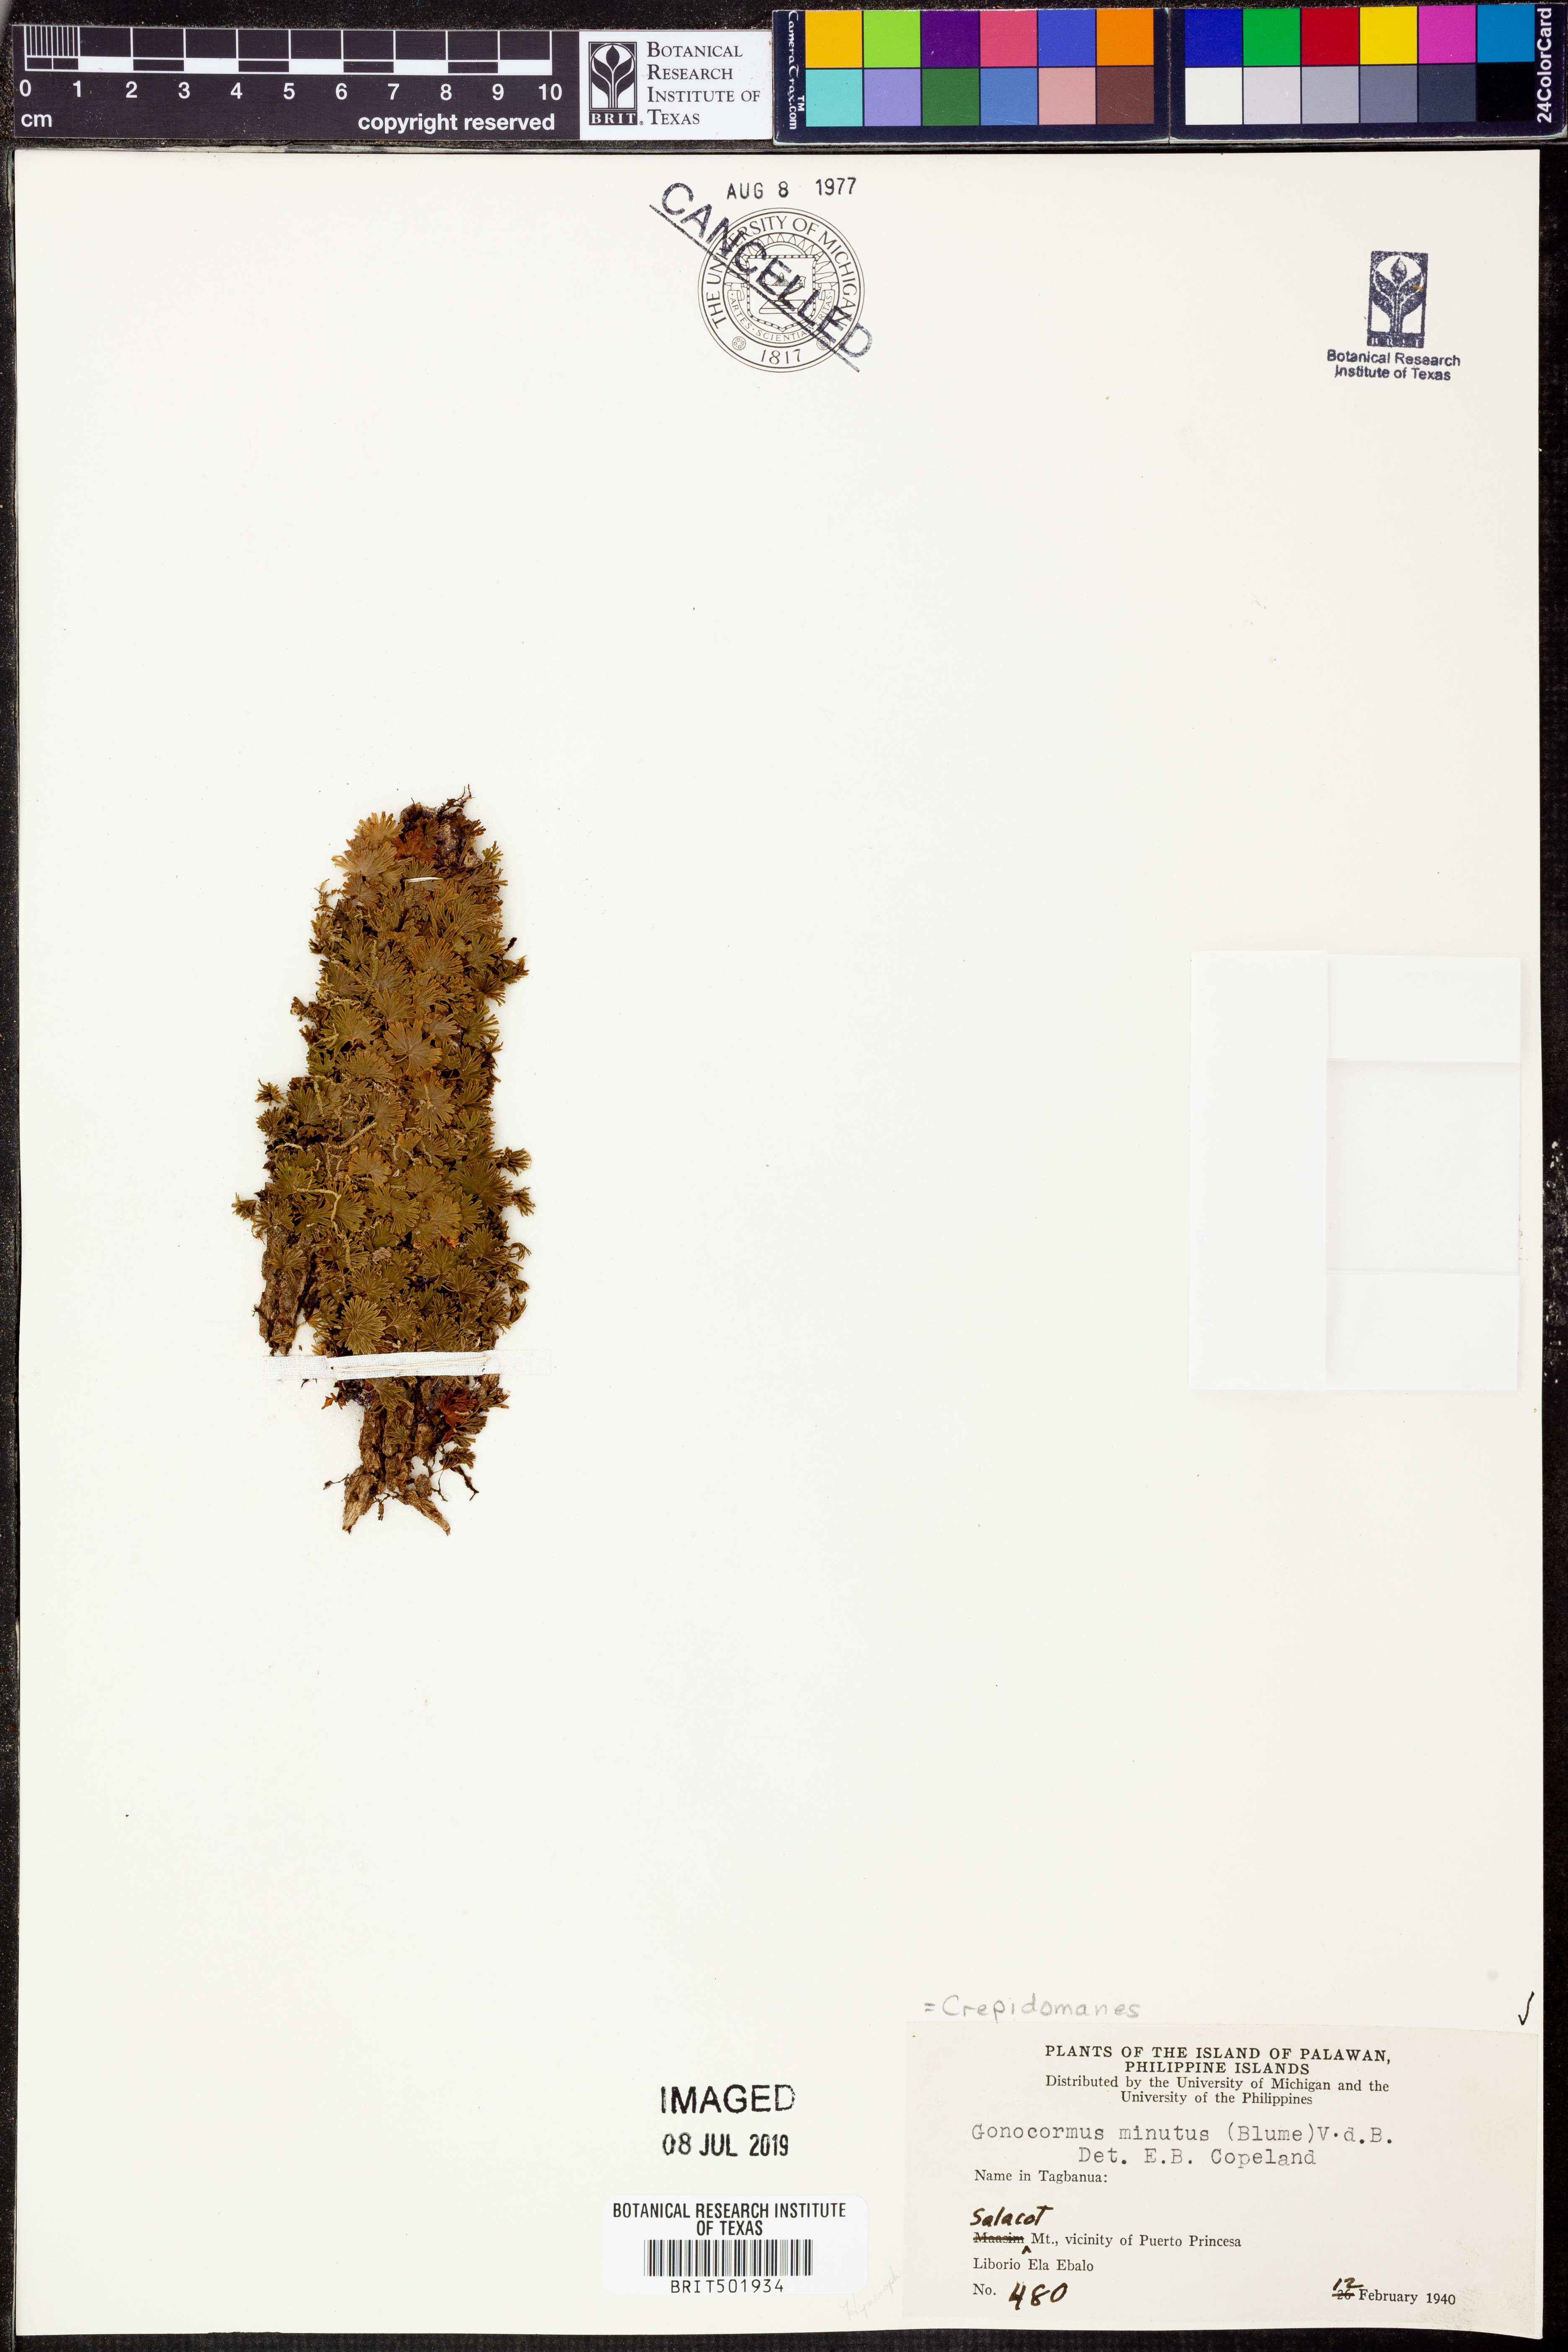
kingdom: Plantae
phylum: Tracheophyta
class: Polypodiopsida
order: Hymenophyllales
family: Hymenophyllaceae
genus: Crepidomanes
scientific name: Crepidomanes parvulum
